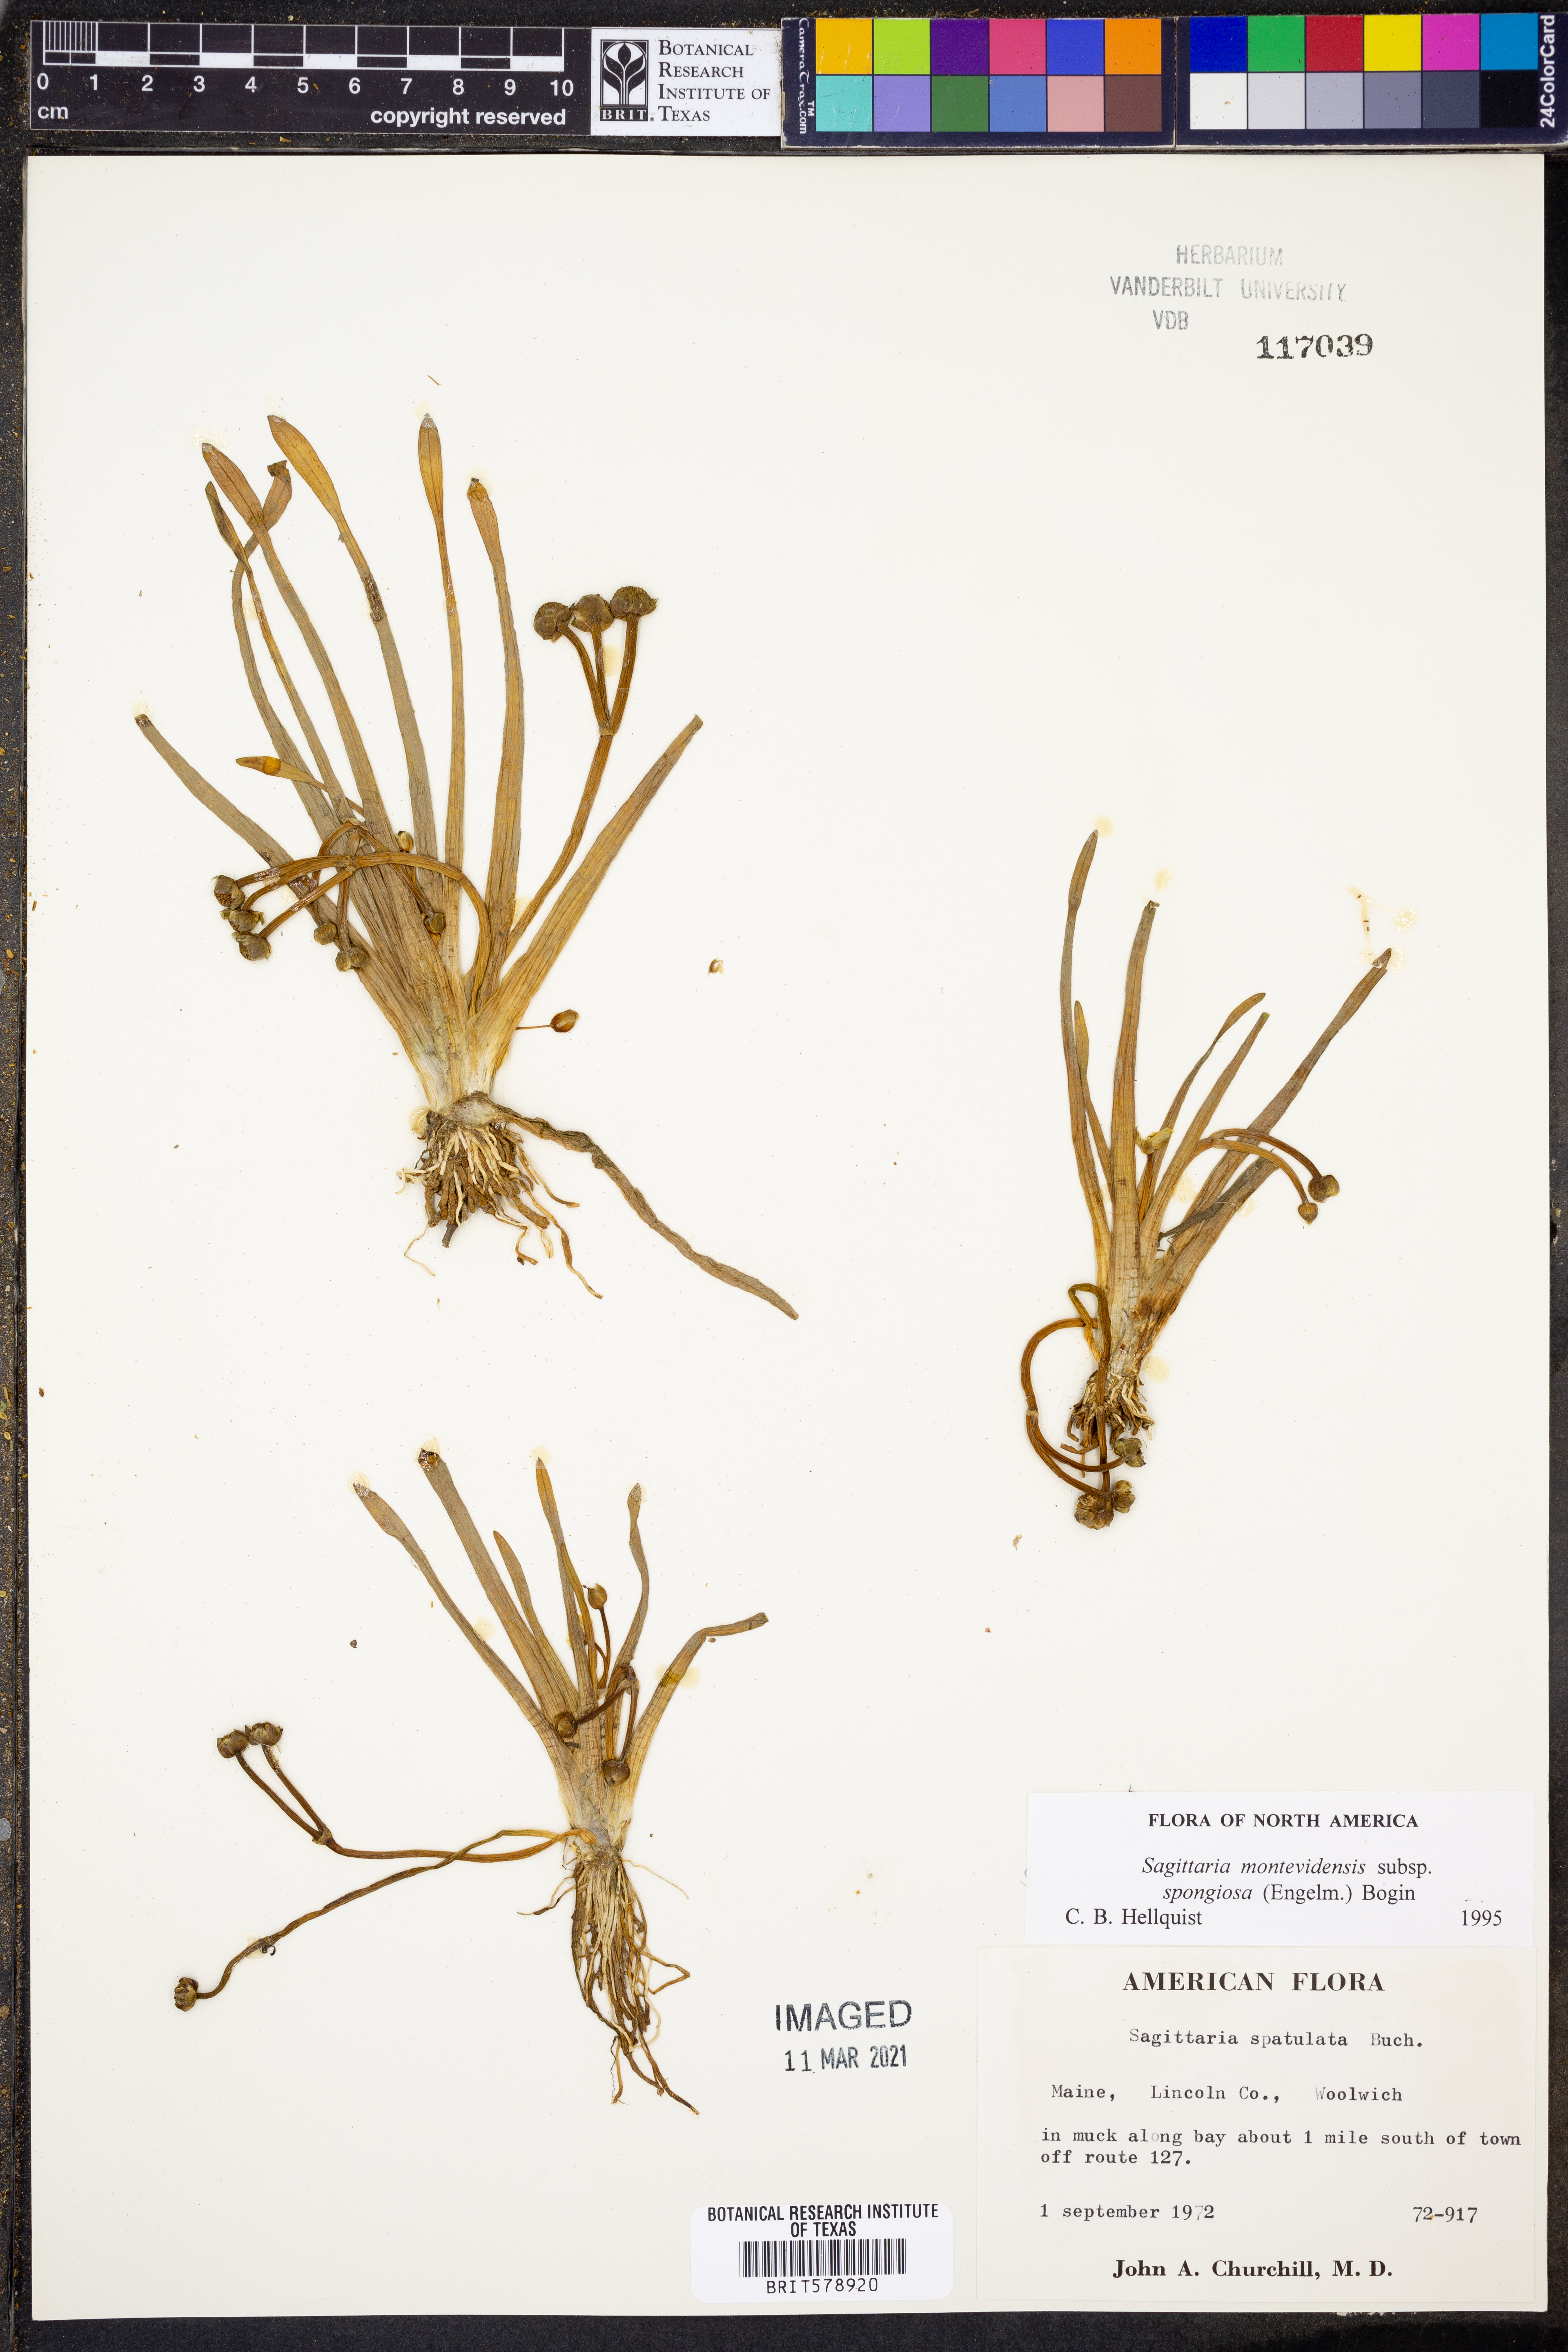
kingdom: Plantae
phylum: Tracheophyta
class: Liliopsida
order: Alismatales
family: Alismataceae
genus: Sagittaria
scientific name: Sagittaria montevidensis
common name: Giant arrowhead
